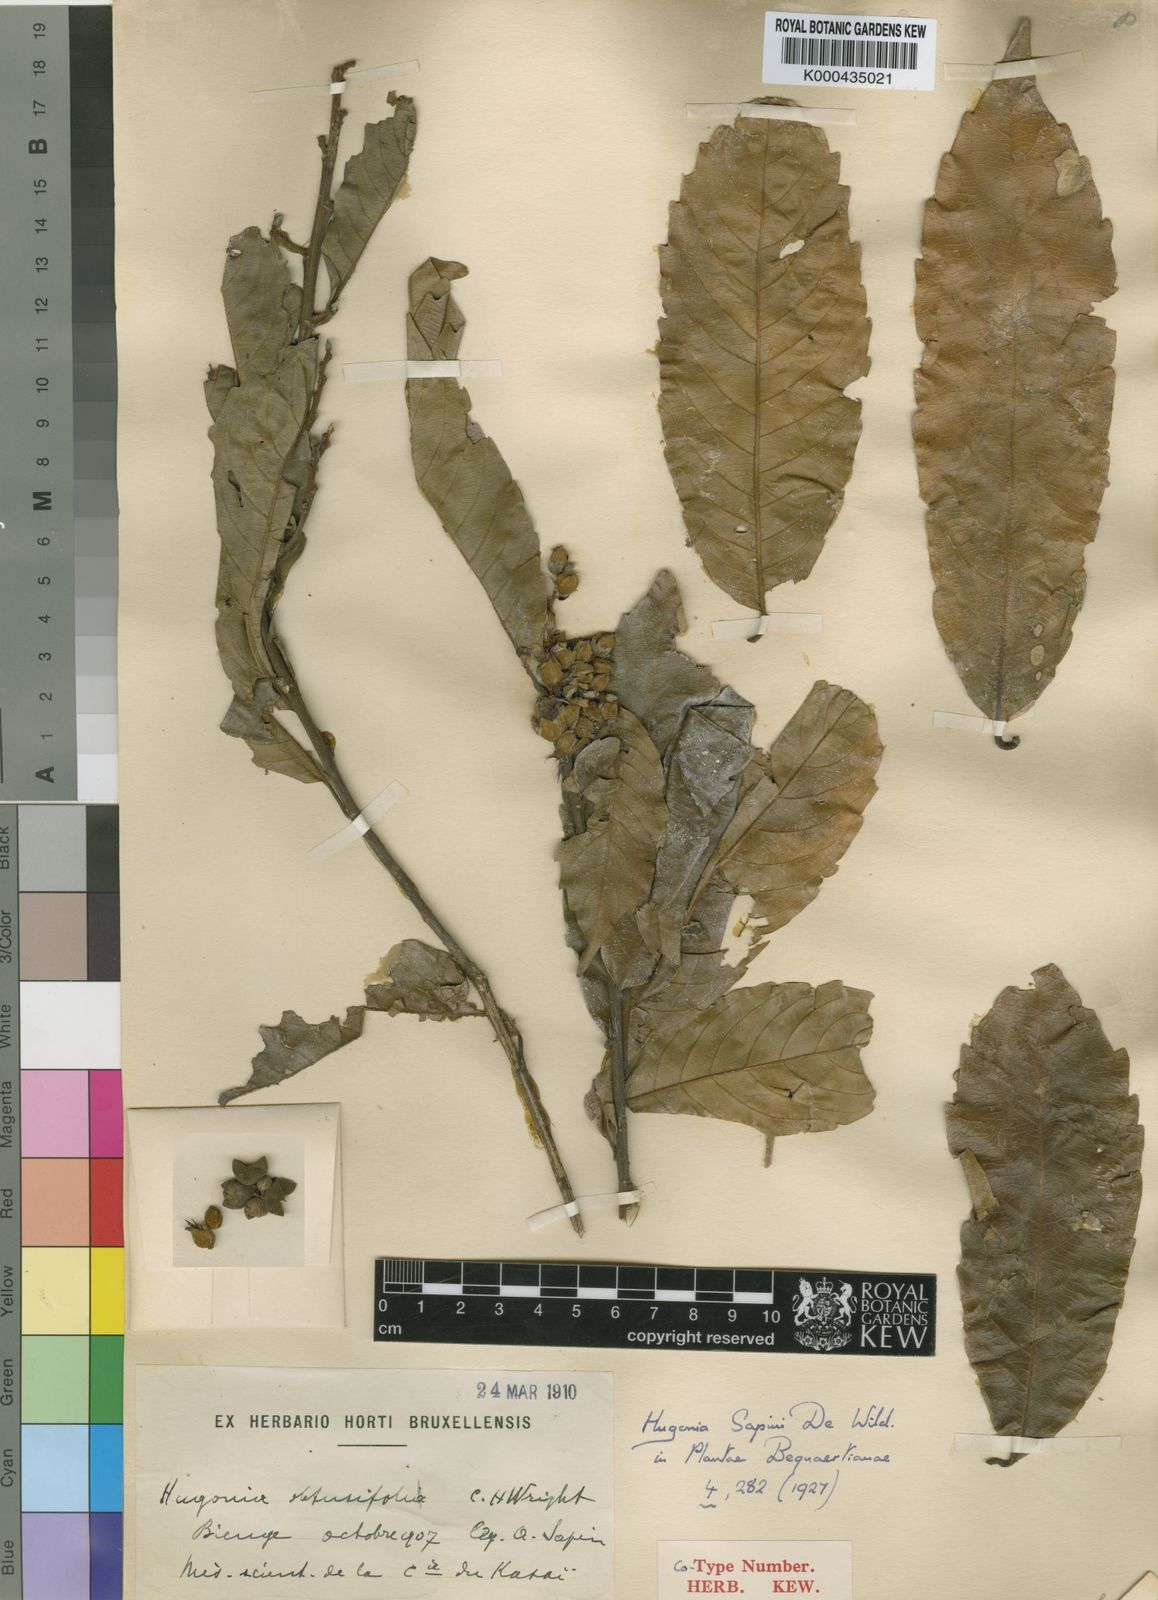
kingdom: Plantae
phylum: Tracheophyta
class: Magnoliopsida
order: Malpighiales
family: Linaceae
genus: Hugonia
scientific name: Hugonia sapinii
